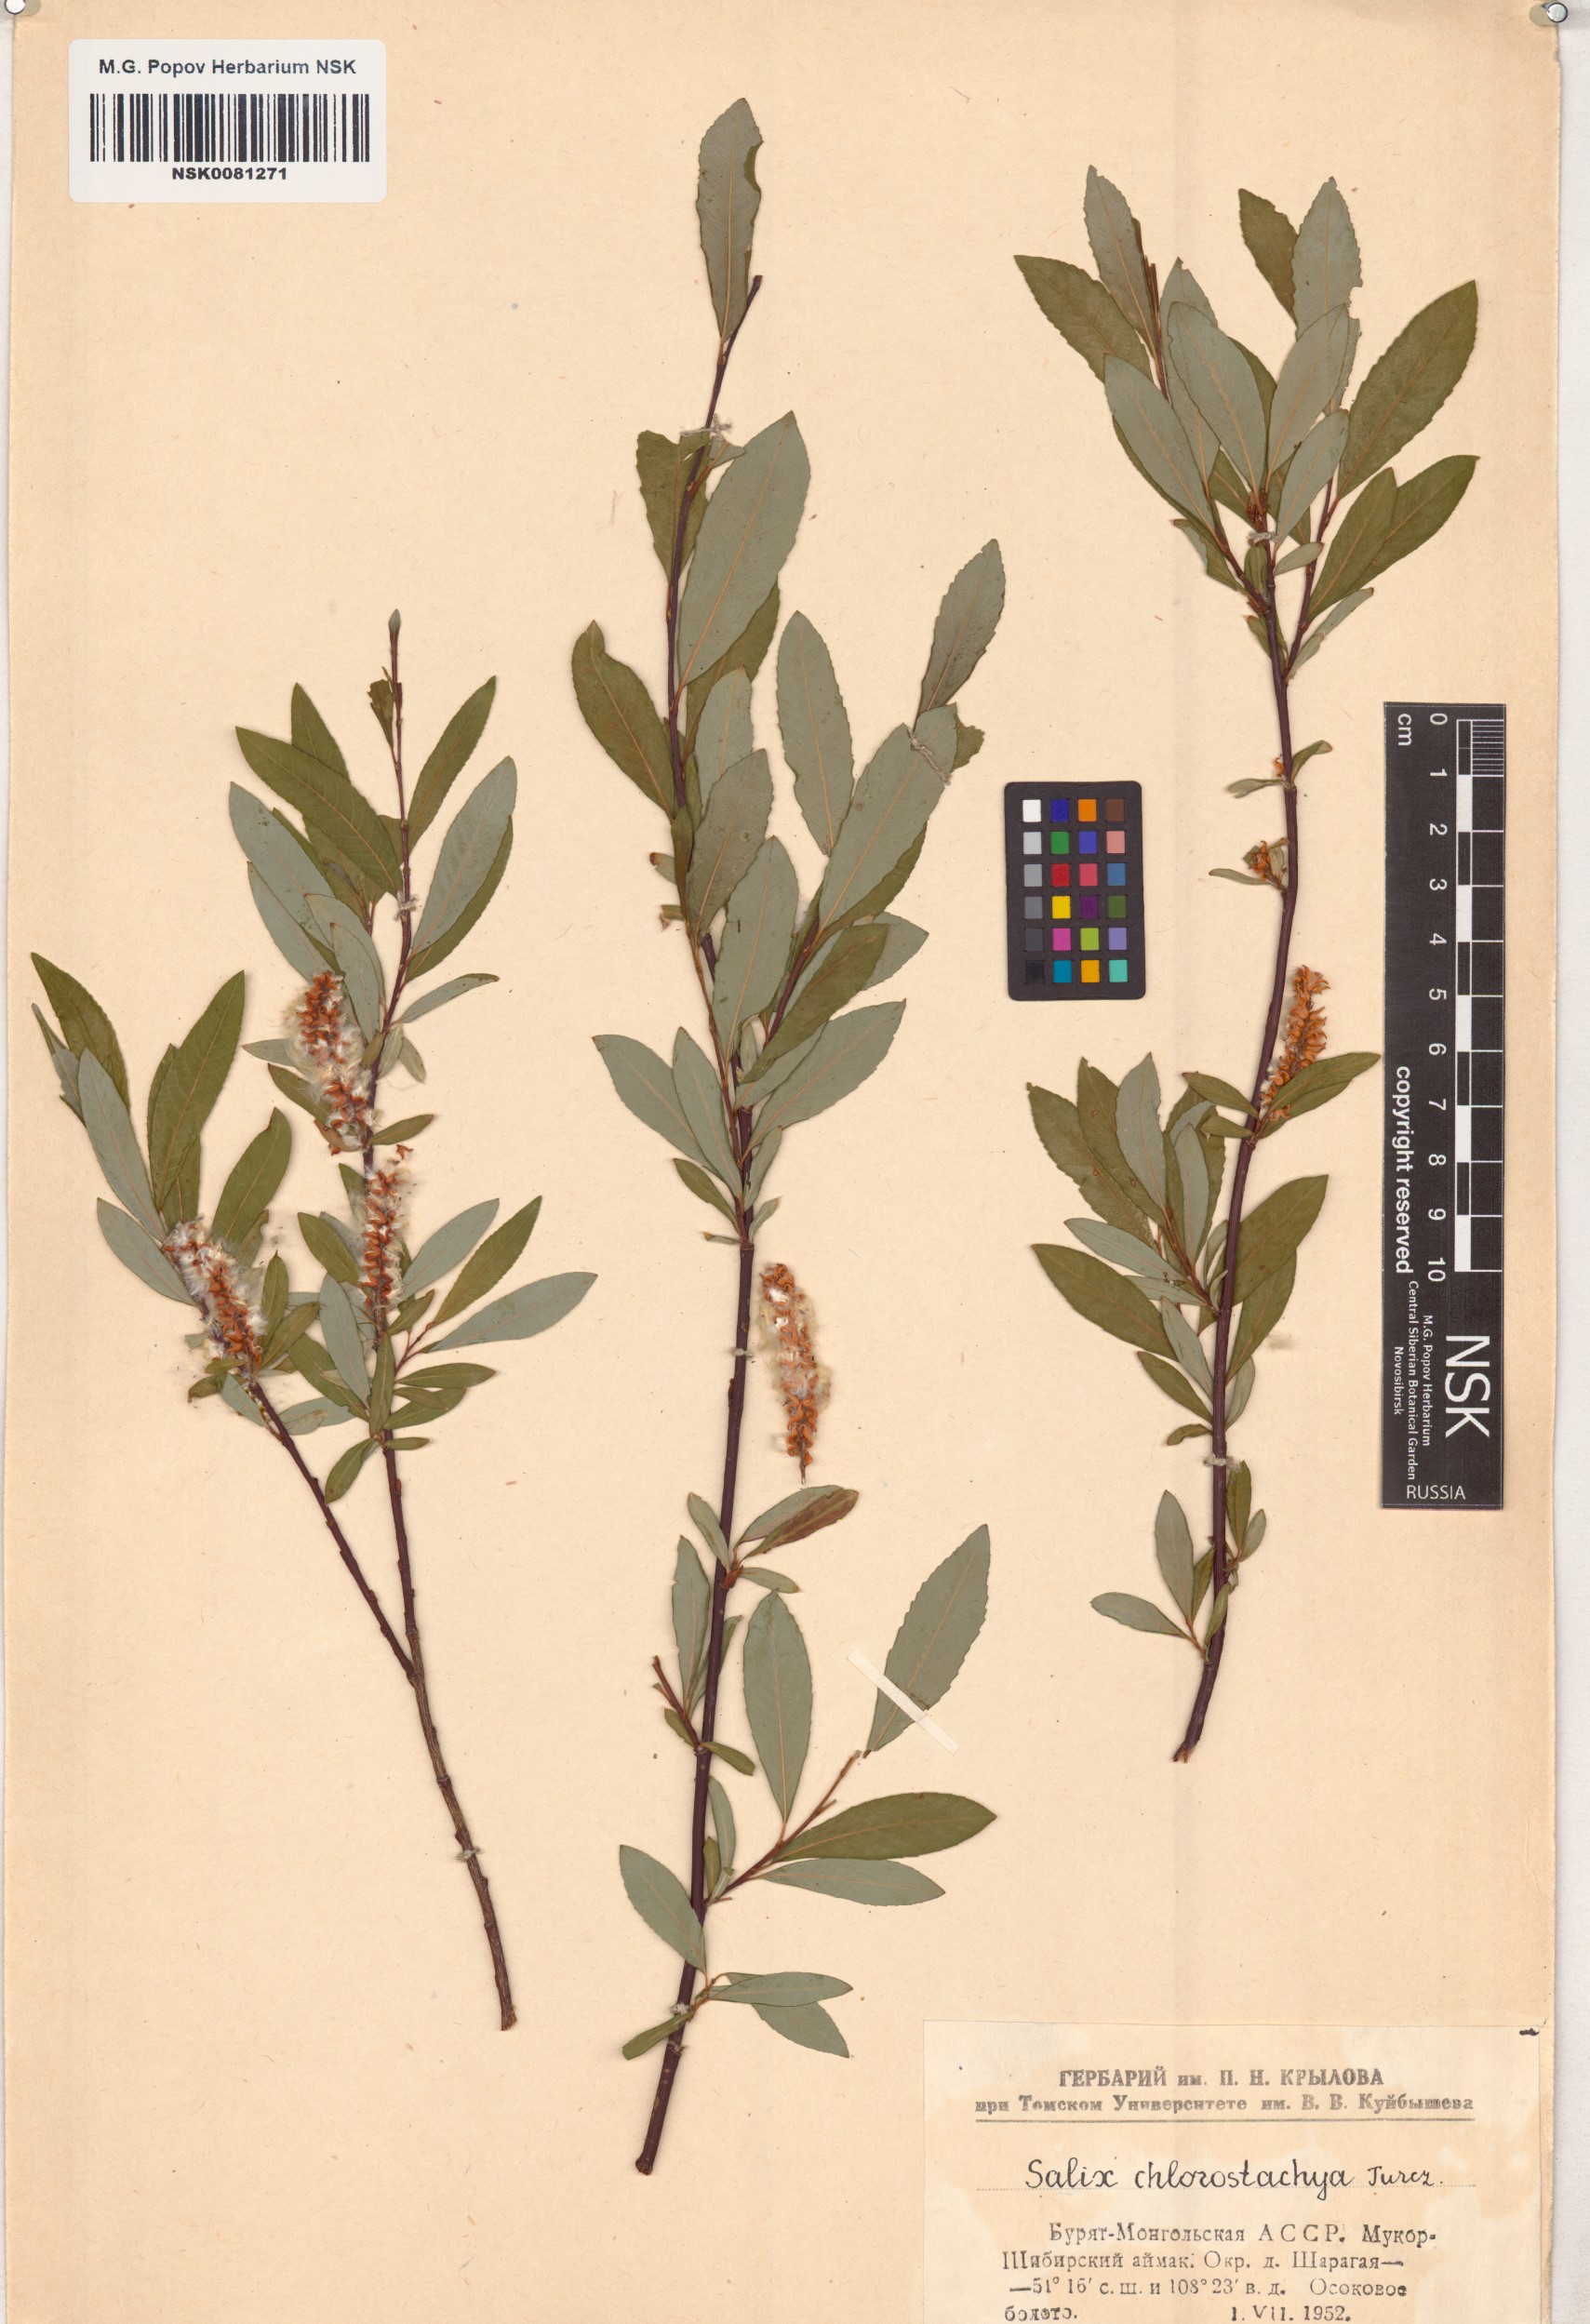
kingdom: Plantae
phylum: Tracheophyta
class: Magnoliopsida
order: Malpighiales
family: Salicaceae
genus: Salix
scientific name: Salix rhamnifolia
